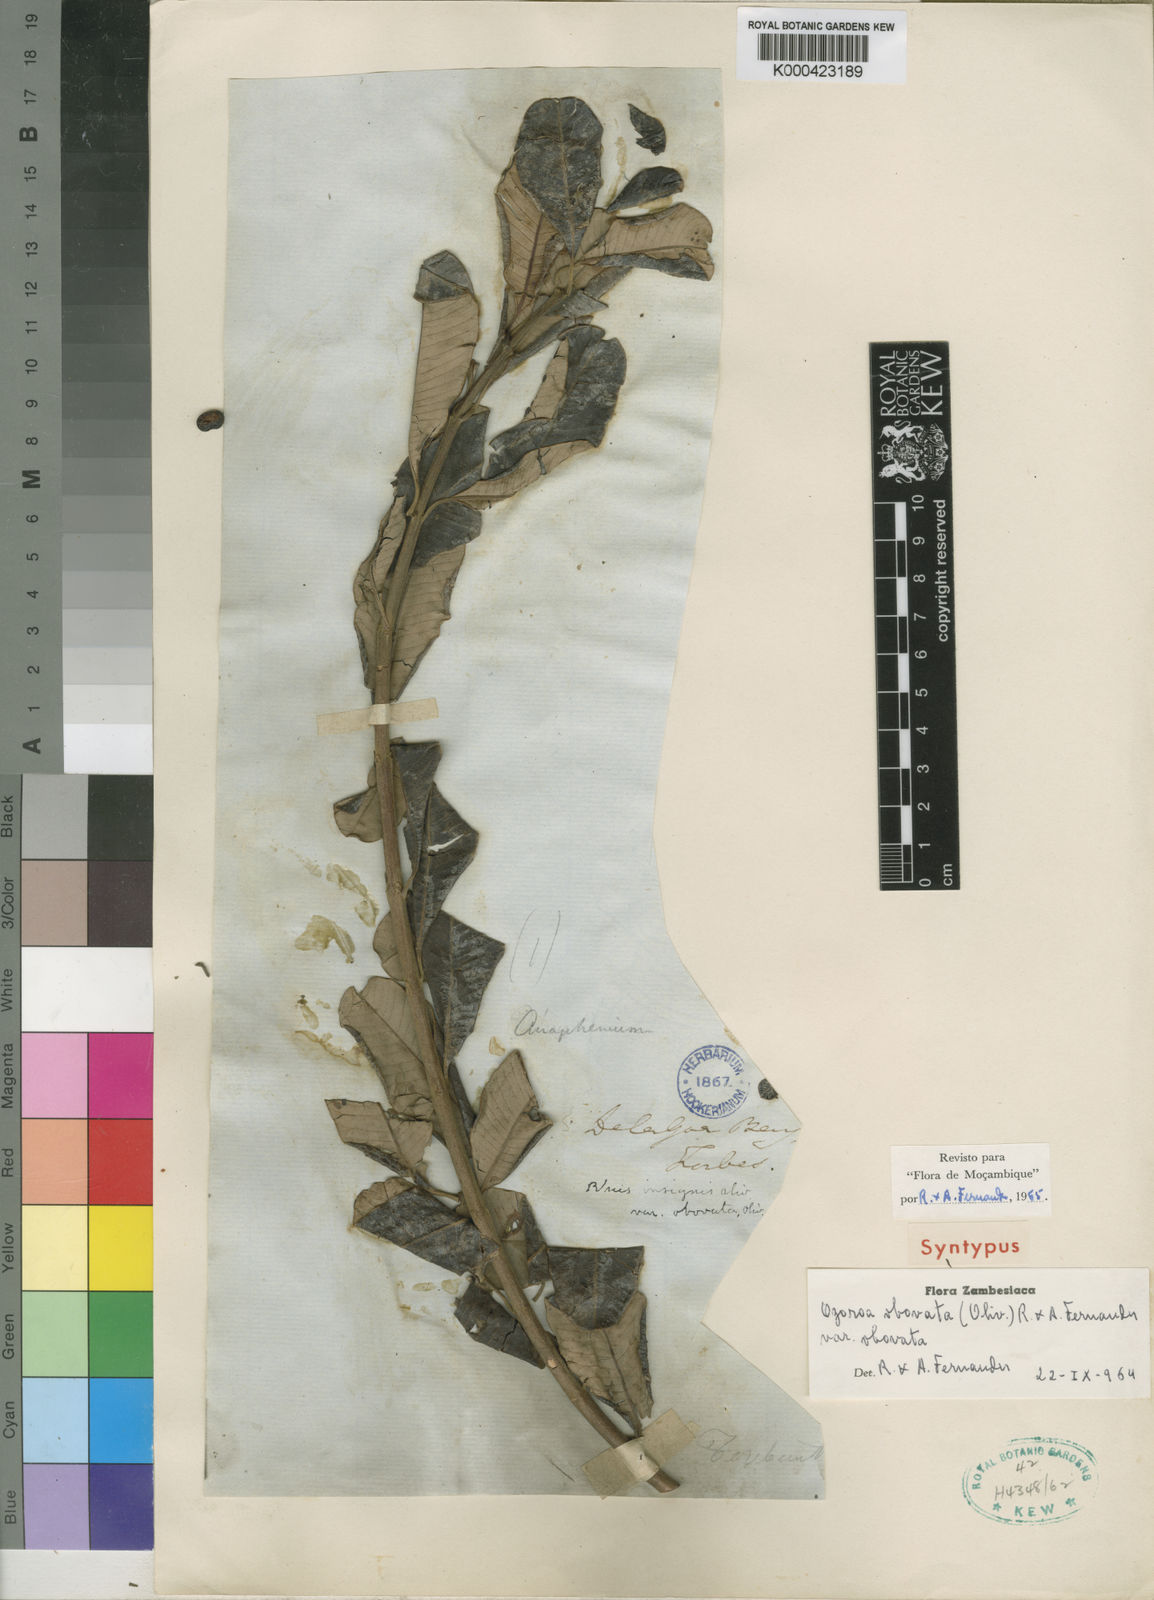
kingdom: Plantae
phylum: Tracheophyta
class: Magnoliopsida
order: Sapindales
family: Anacardiaceae
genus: Ozoroa
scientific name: Ozoroa obovata
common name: Broad-leaved resin tree
